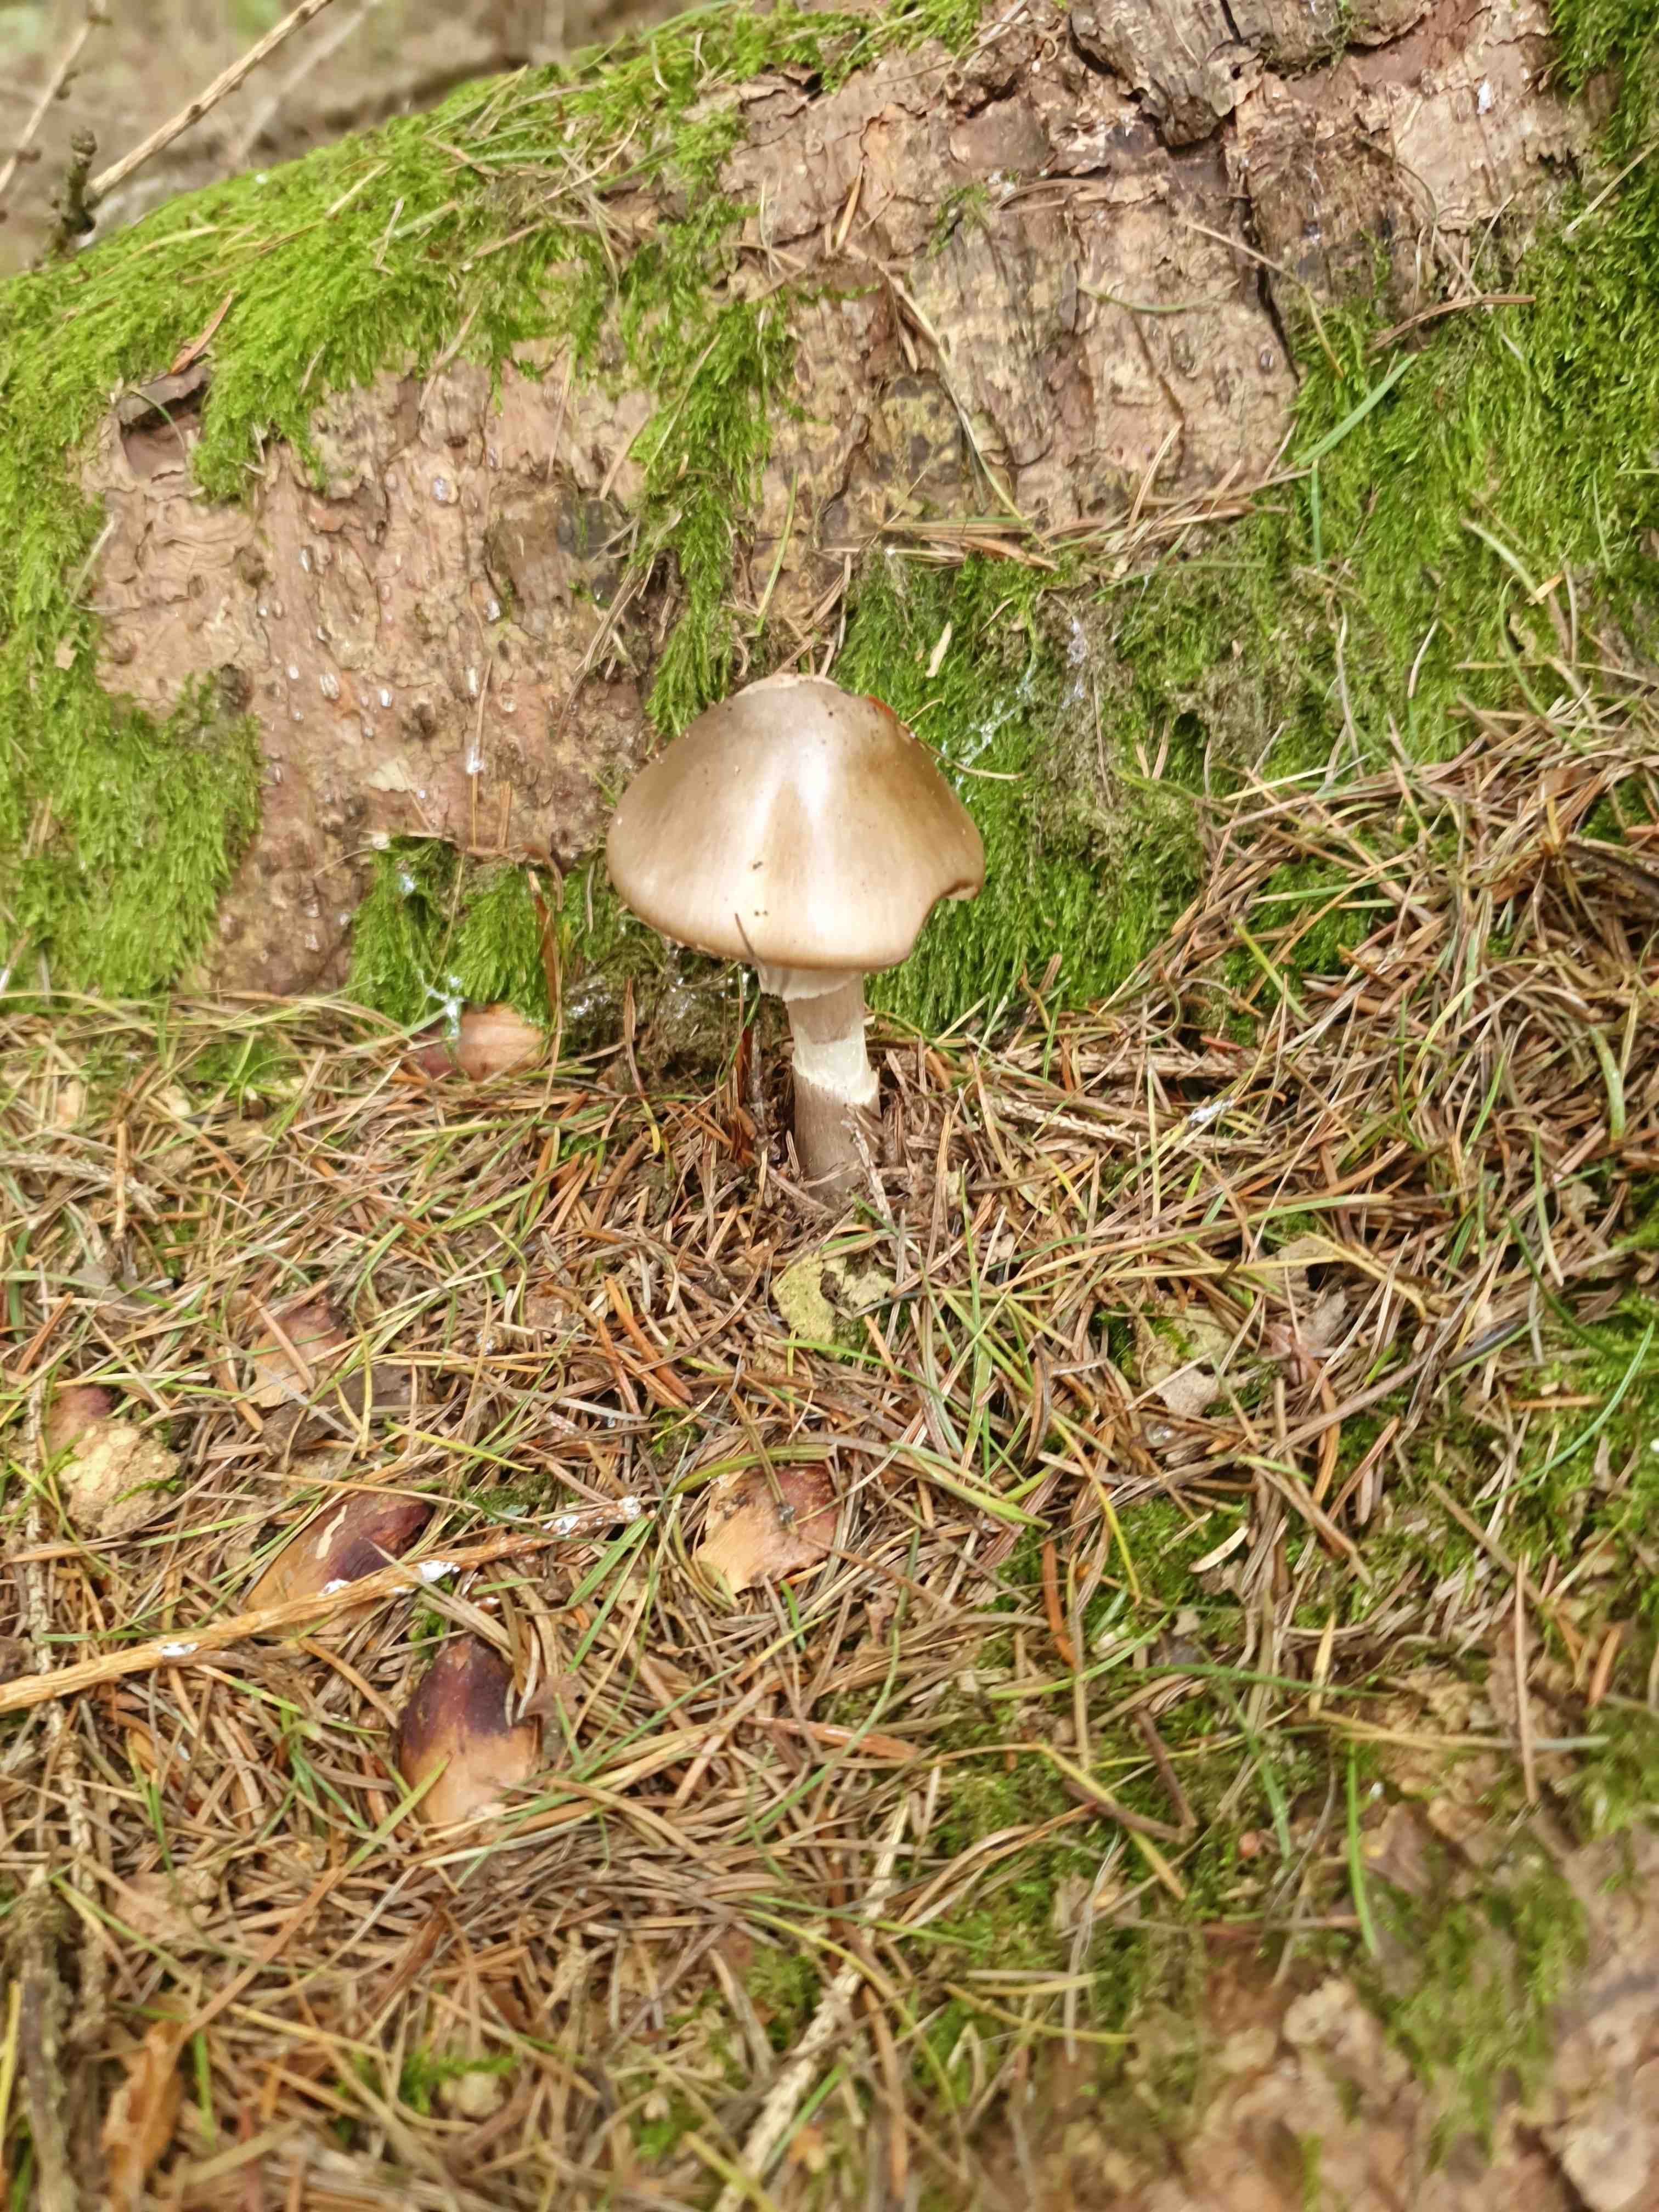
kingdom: Fungi
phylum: Basidiomycota
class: Agaricomycetes
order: Agaricales
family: Amanitaceae
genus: Amanita
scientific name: Amanita porphyria
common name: porfyr-fluesvamp
